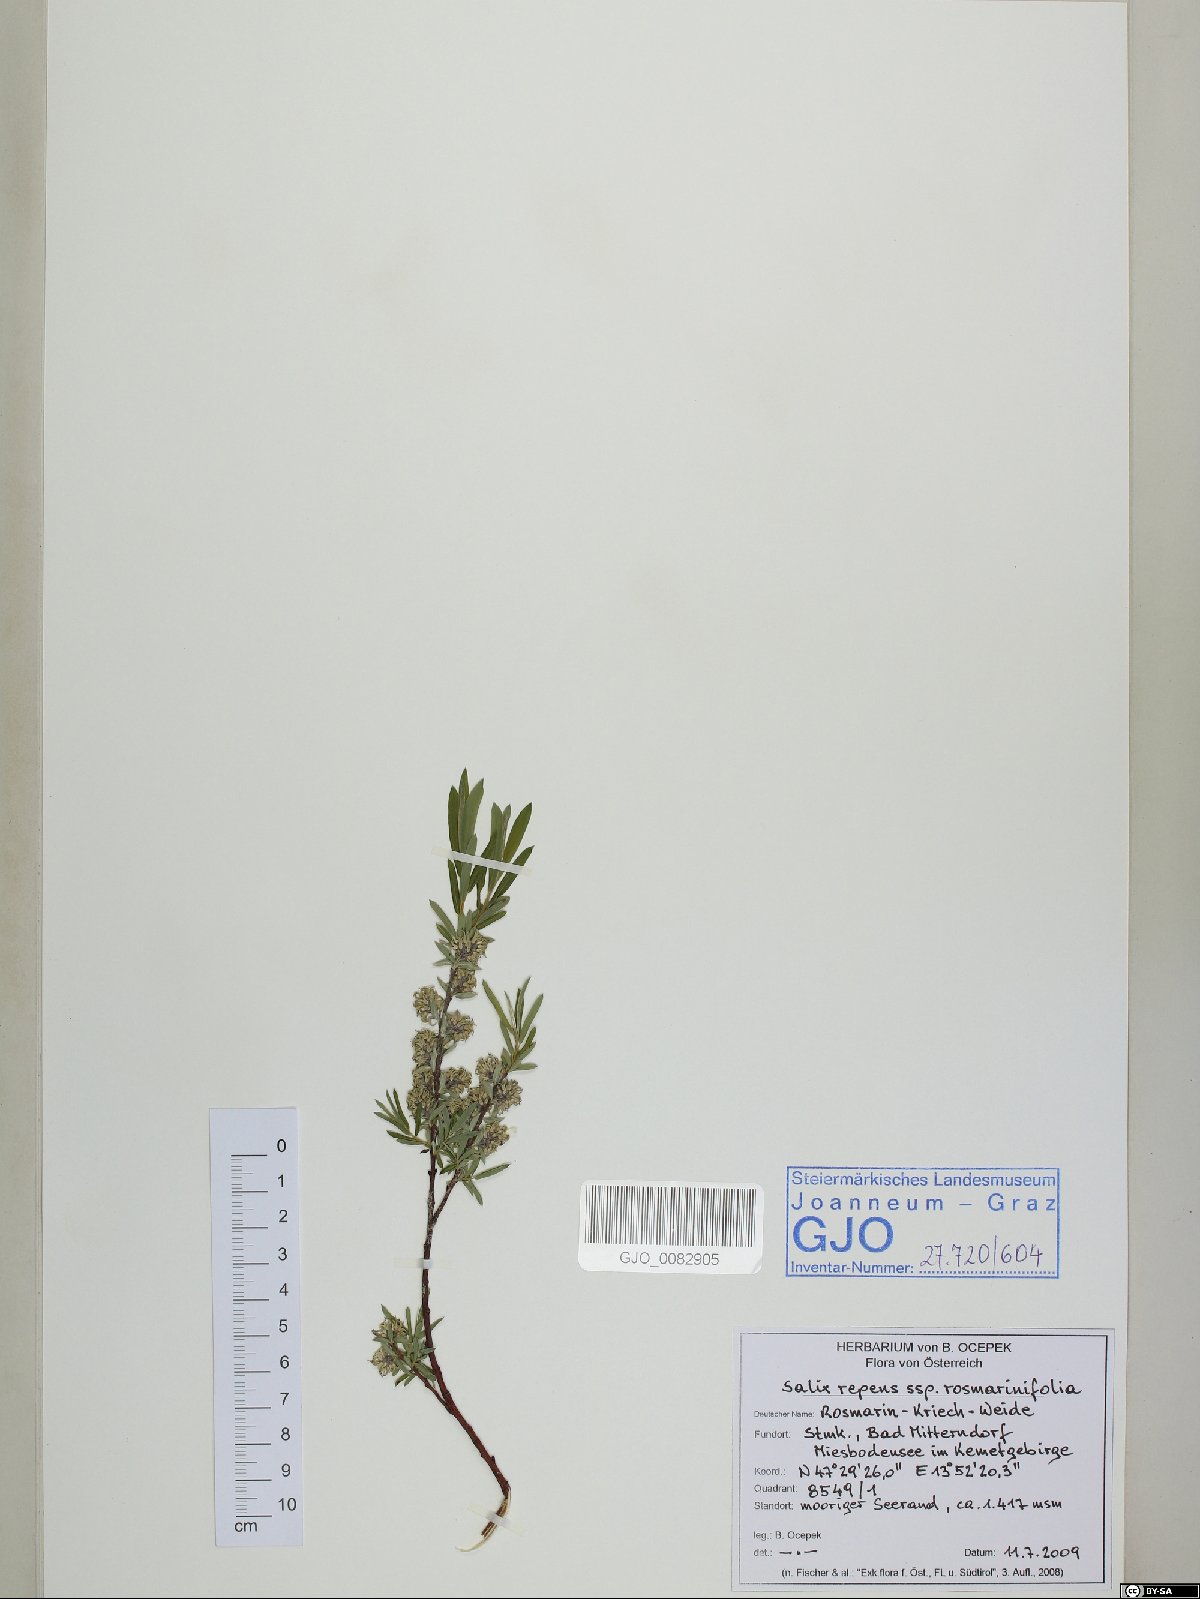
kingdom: Plantae
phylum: Tracheophyta
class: Magnoliopsida
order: Malpighiales
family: Salicaceae
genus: Salix
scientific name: Salix repens
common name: Creeping willow
